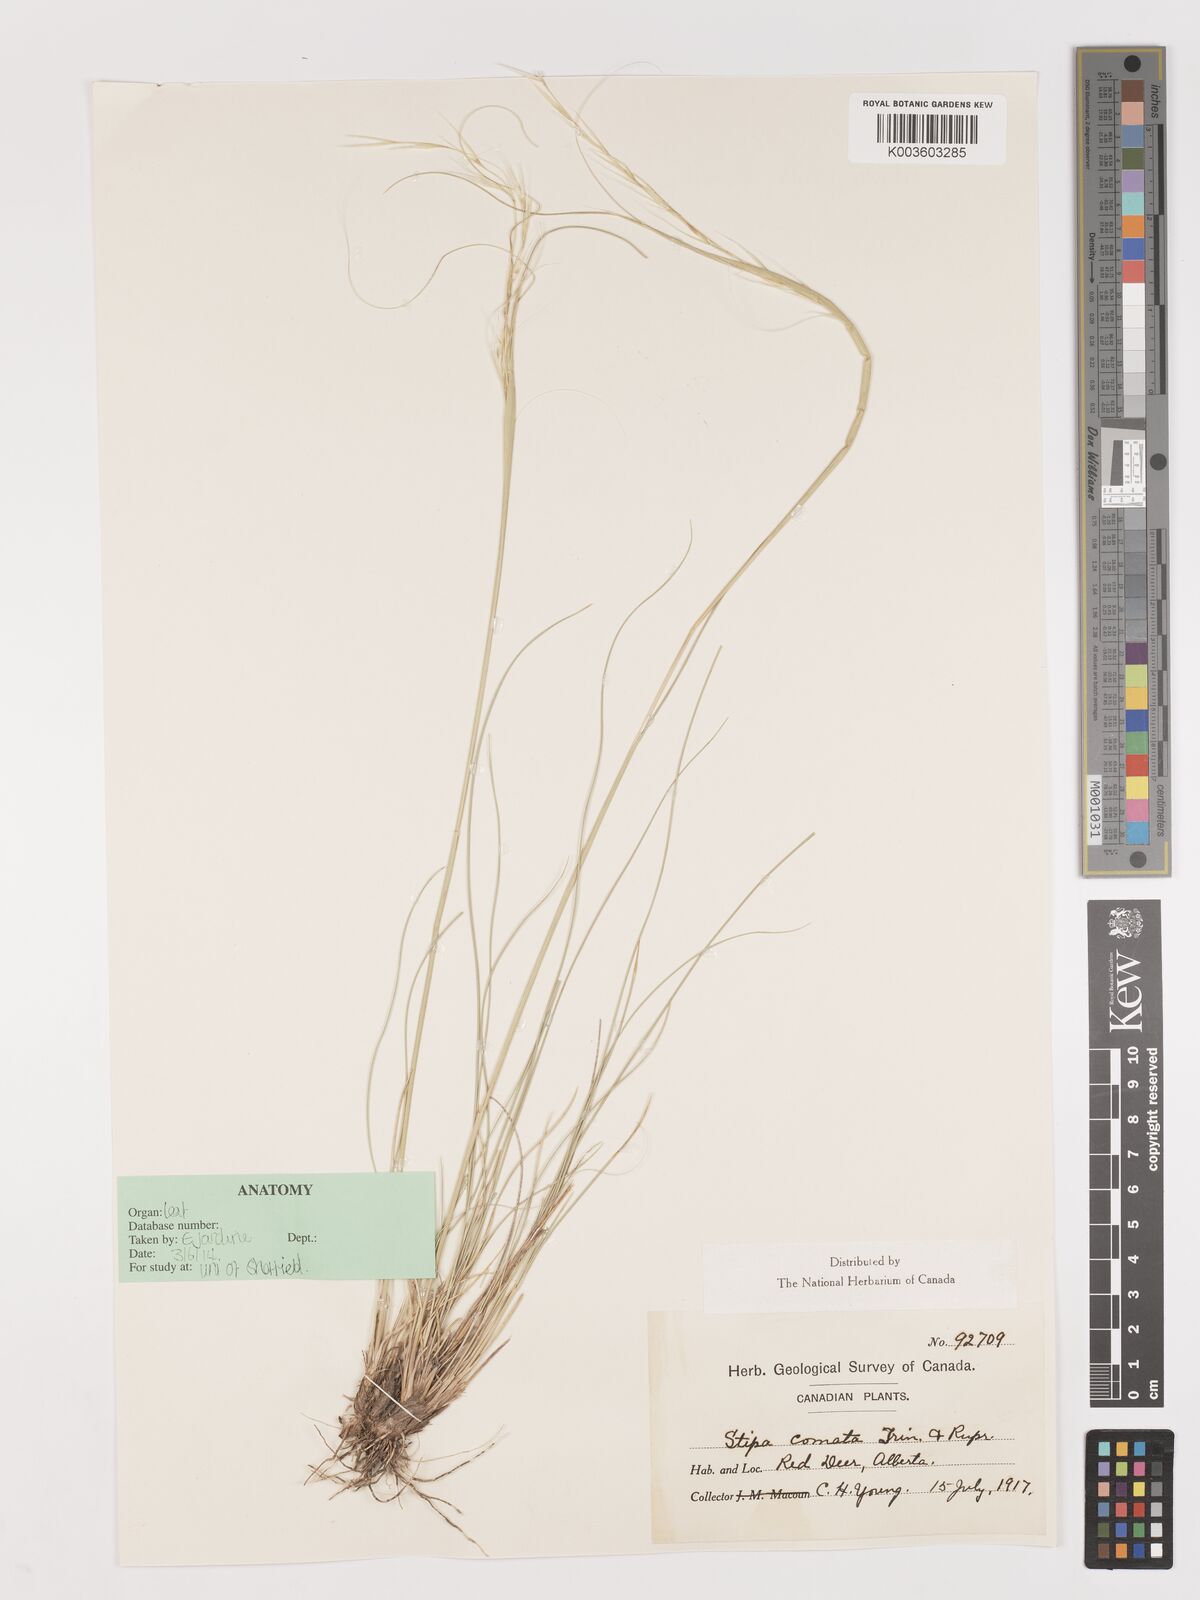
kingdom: Plantae
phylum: Tracheophyta
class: Liliopsida
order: Poales
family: Poaceae
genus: Stipa
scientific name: Stipa
